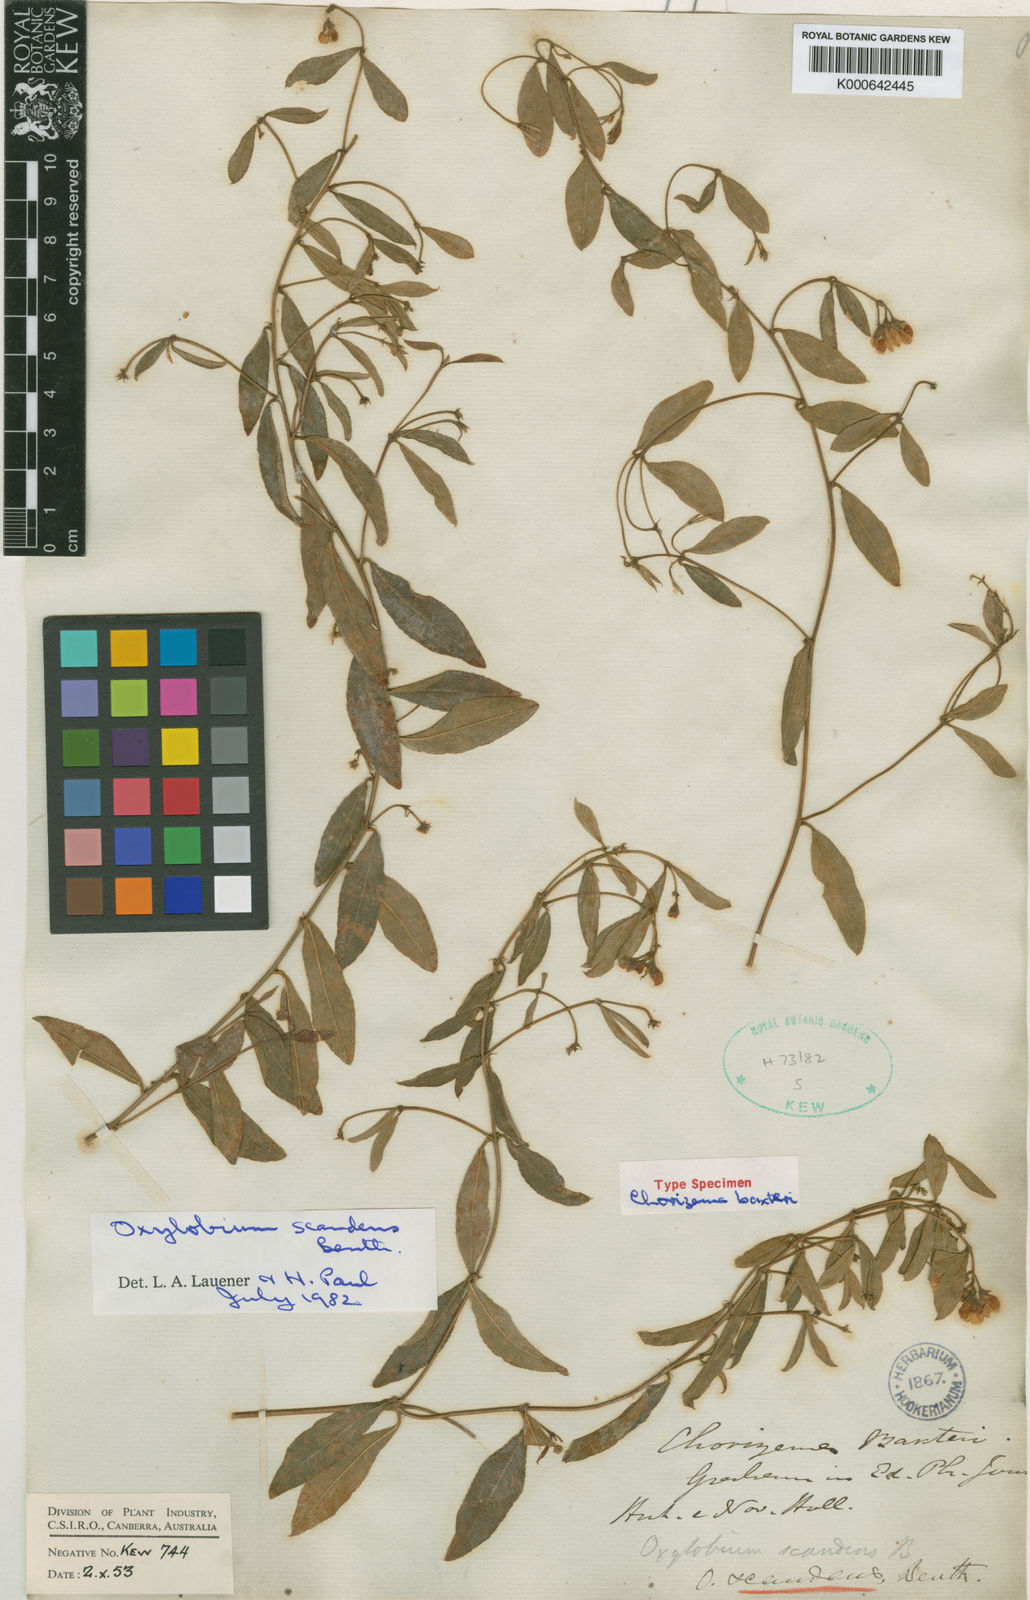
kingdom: Plantae
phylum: Tracheophyta
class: Magnoliopsida
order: Fabales
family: Fabaceae
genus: Podolobium
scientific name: Podolobium scandens
